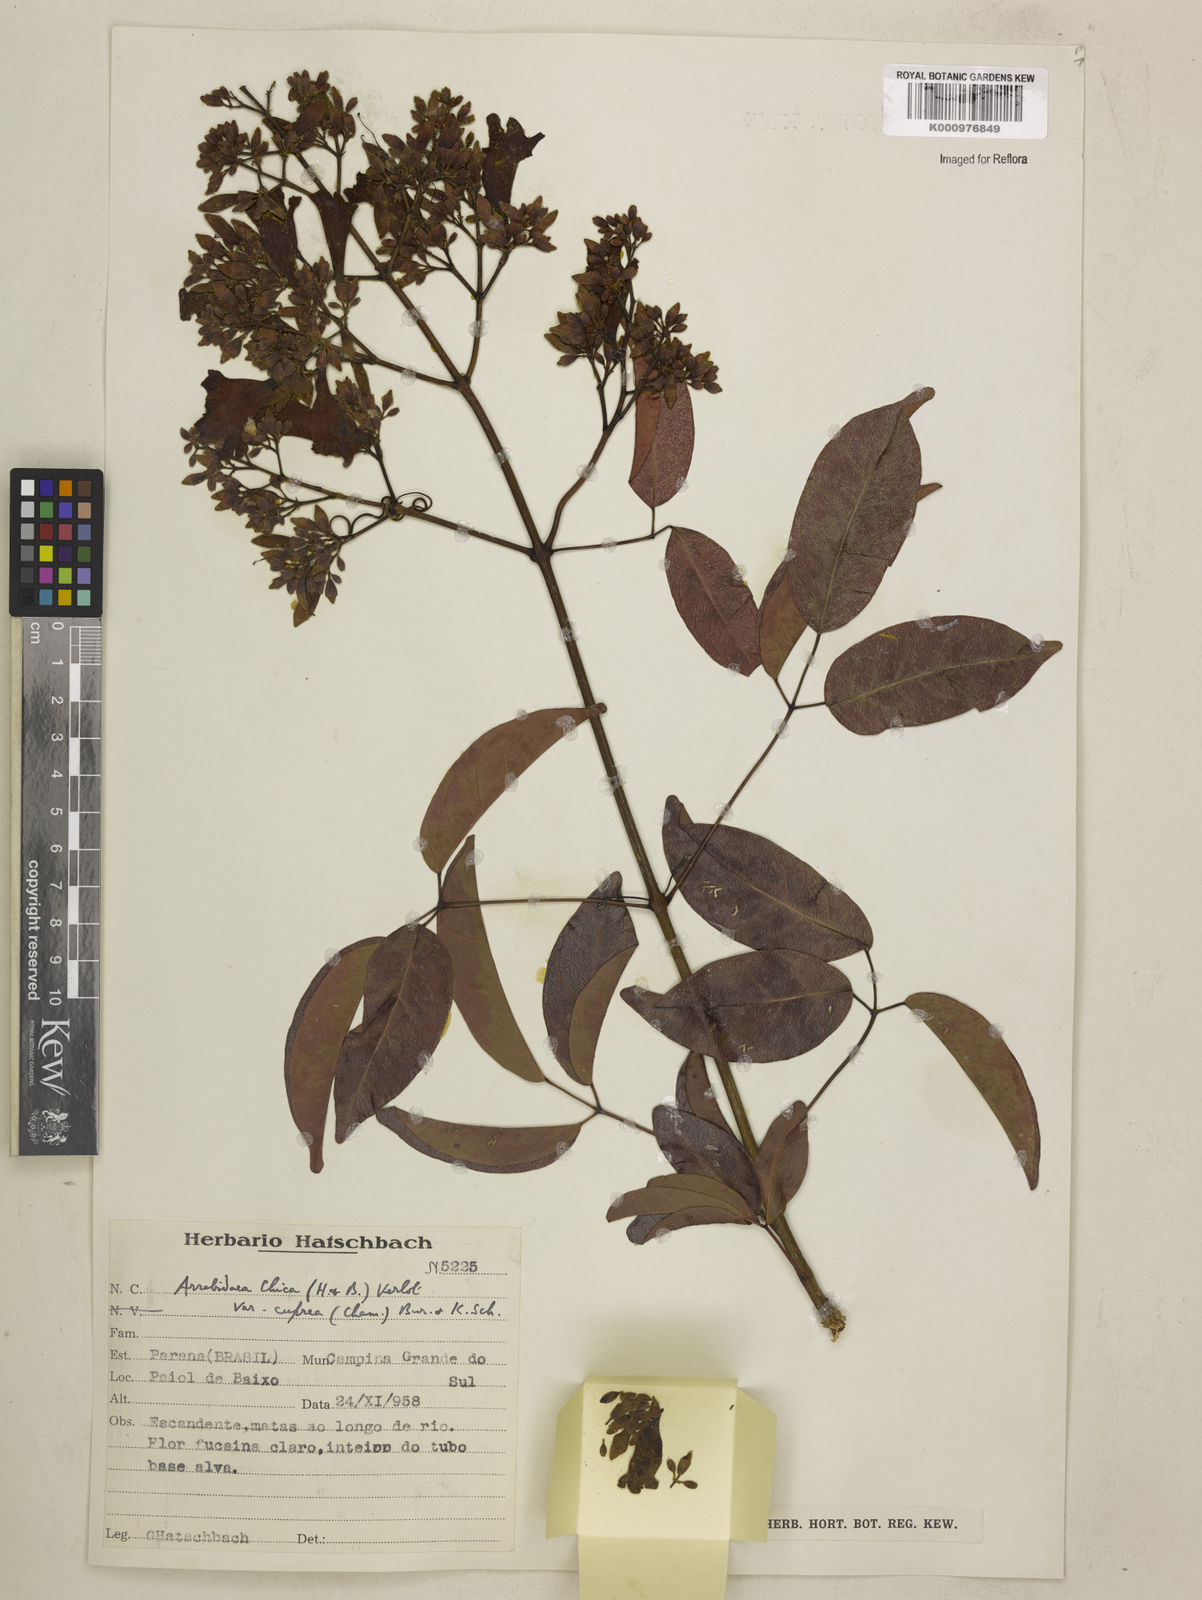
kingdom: Plantae
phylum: Tracheophyta
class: Magnoliopsida
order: Lamiales
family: Bignoniaceae
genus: Fridericia
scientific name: Fridericia chica
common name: Cricketvine
